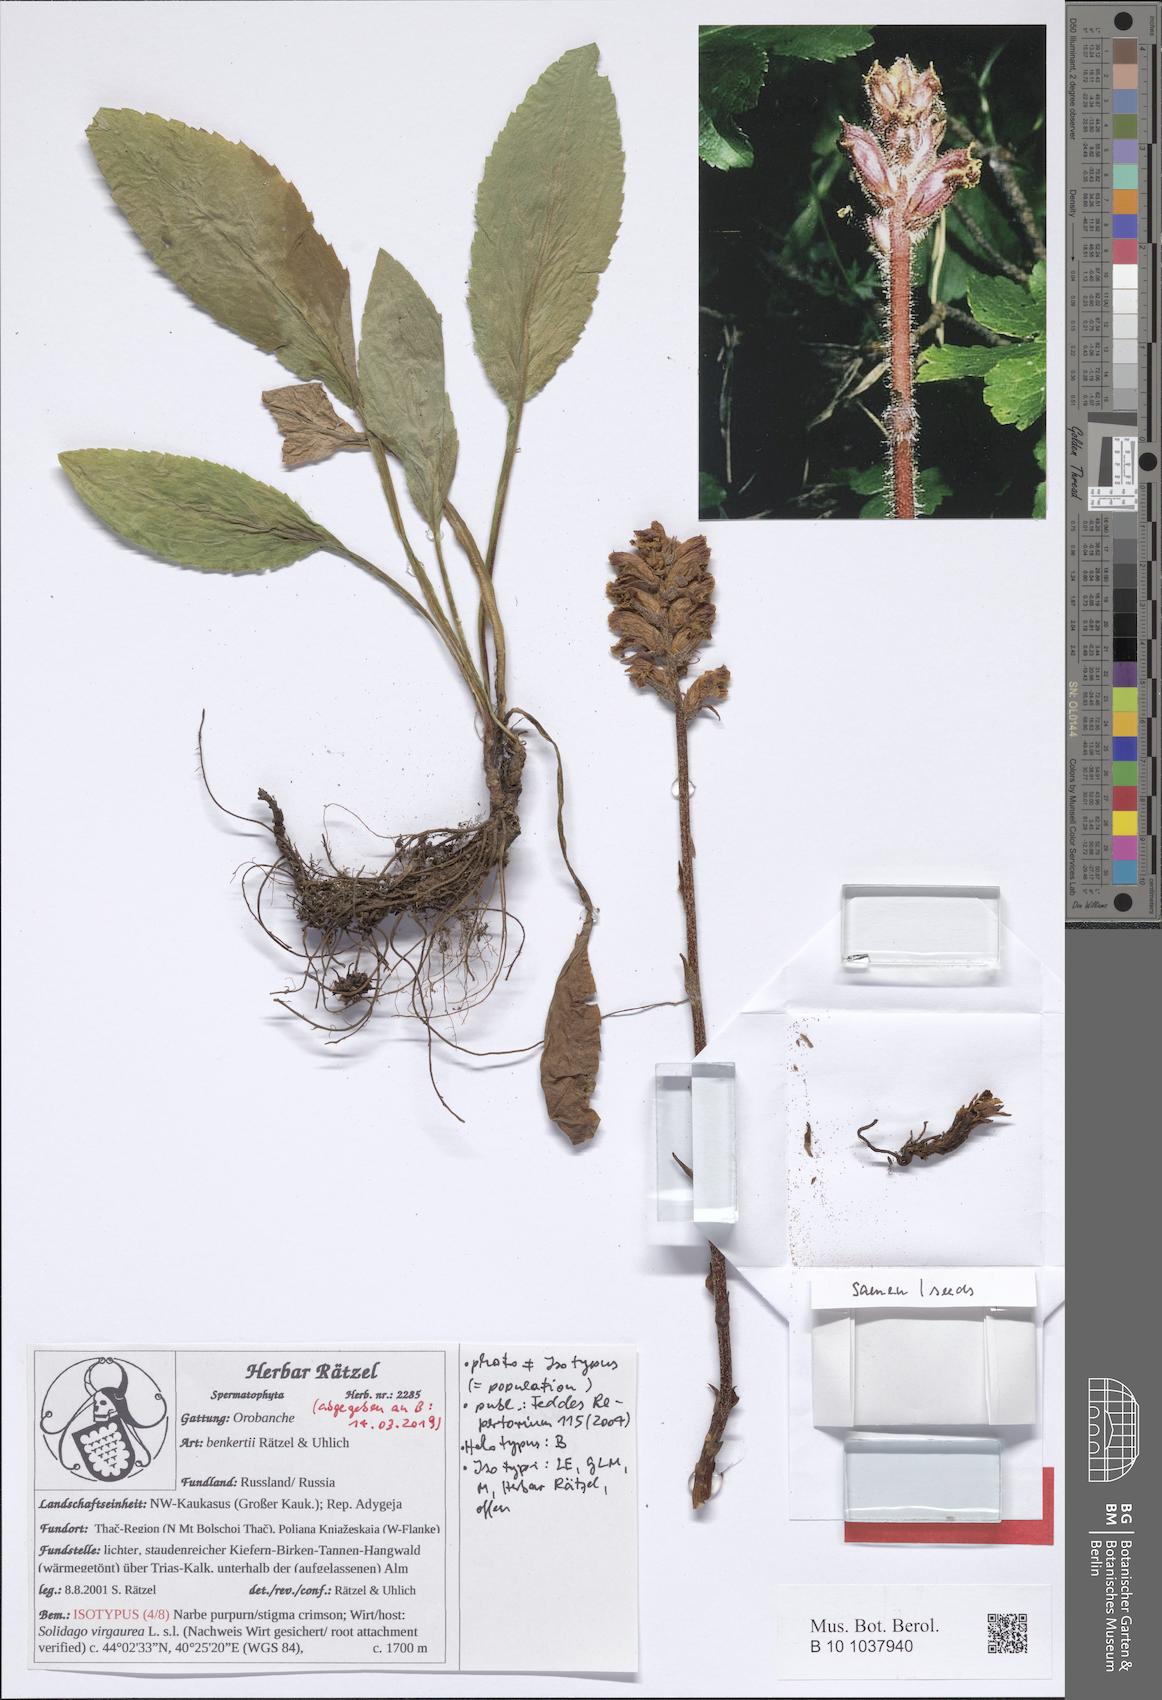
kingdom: Plantae
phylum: Tracheophyta
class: Magnoliopsida
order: Lamiales
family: Orobanchaceae
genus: Orobanche
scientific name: Orobanche benkertii
